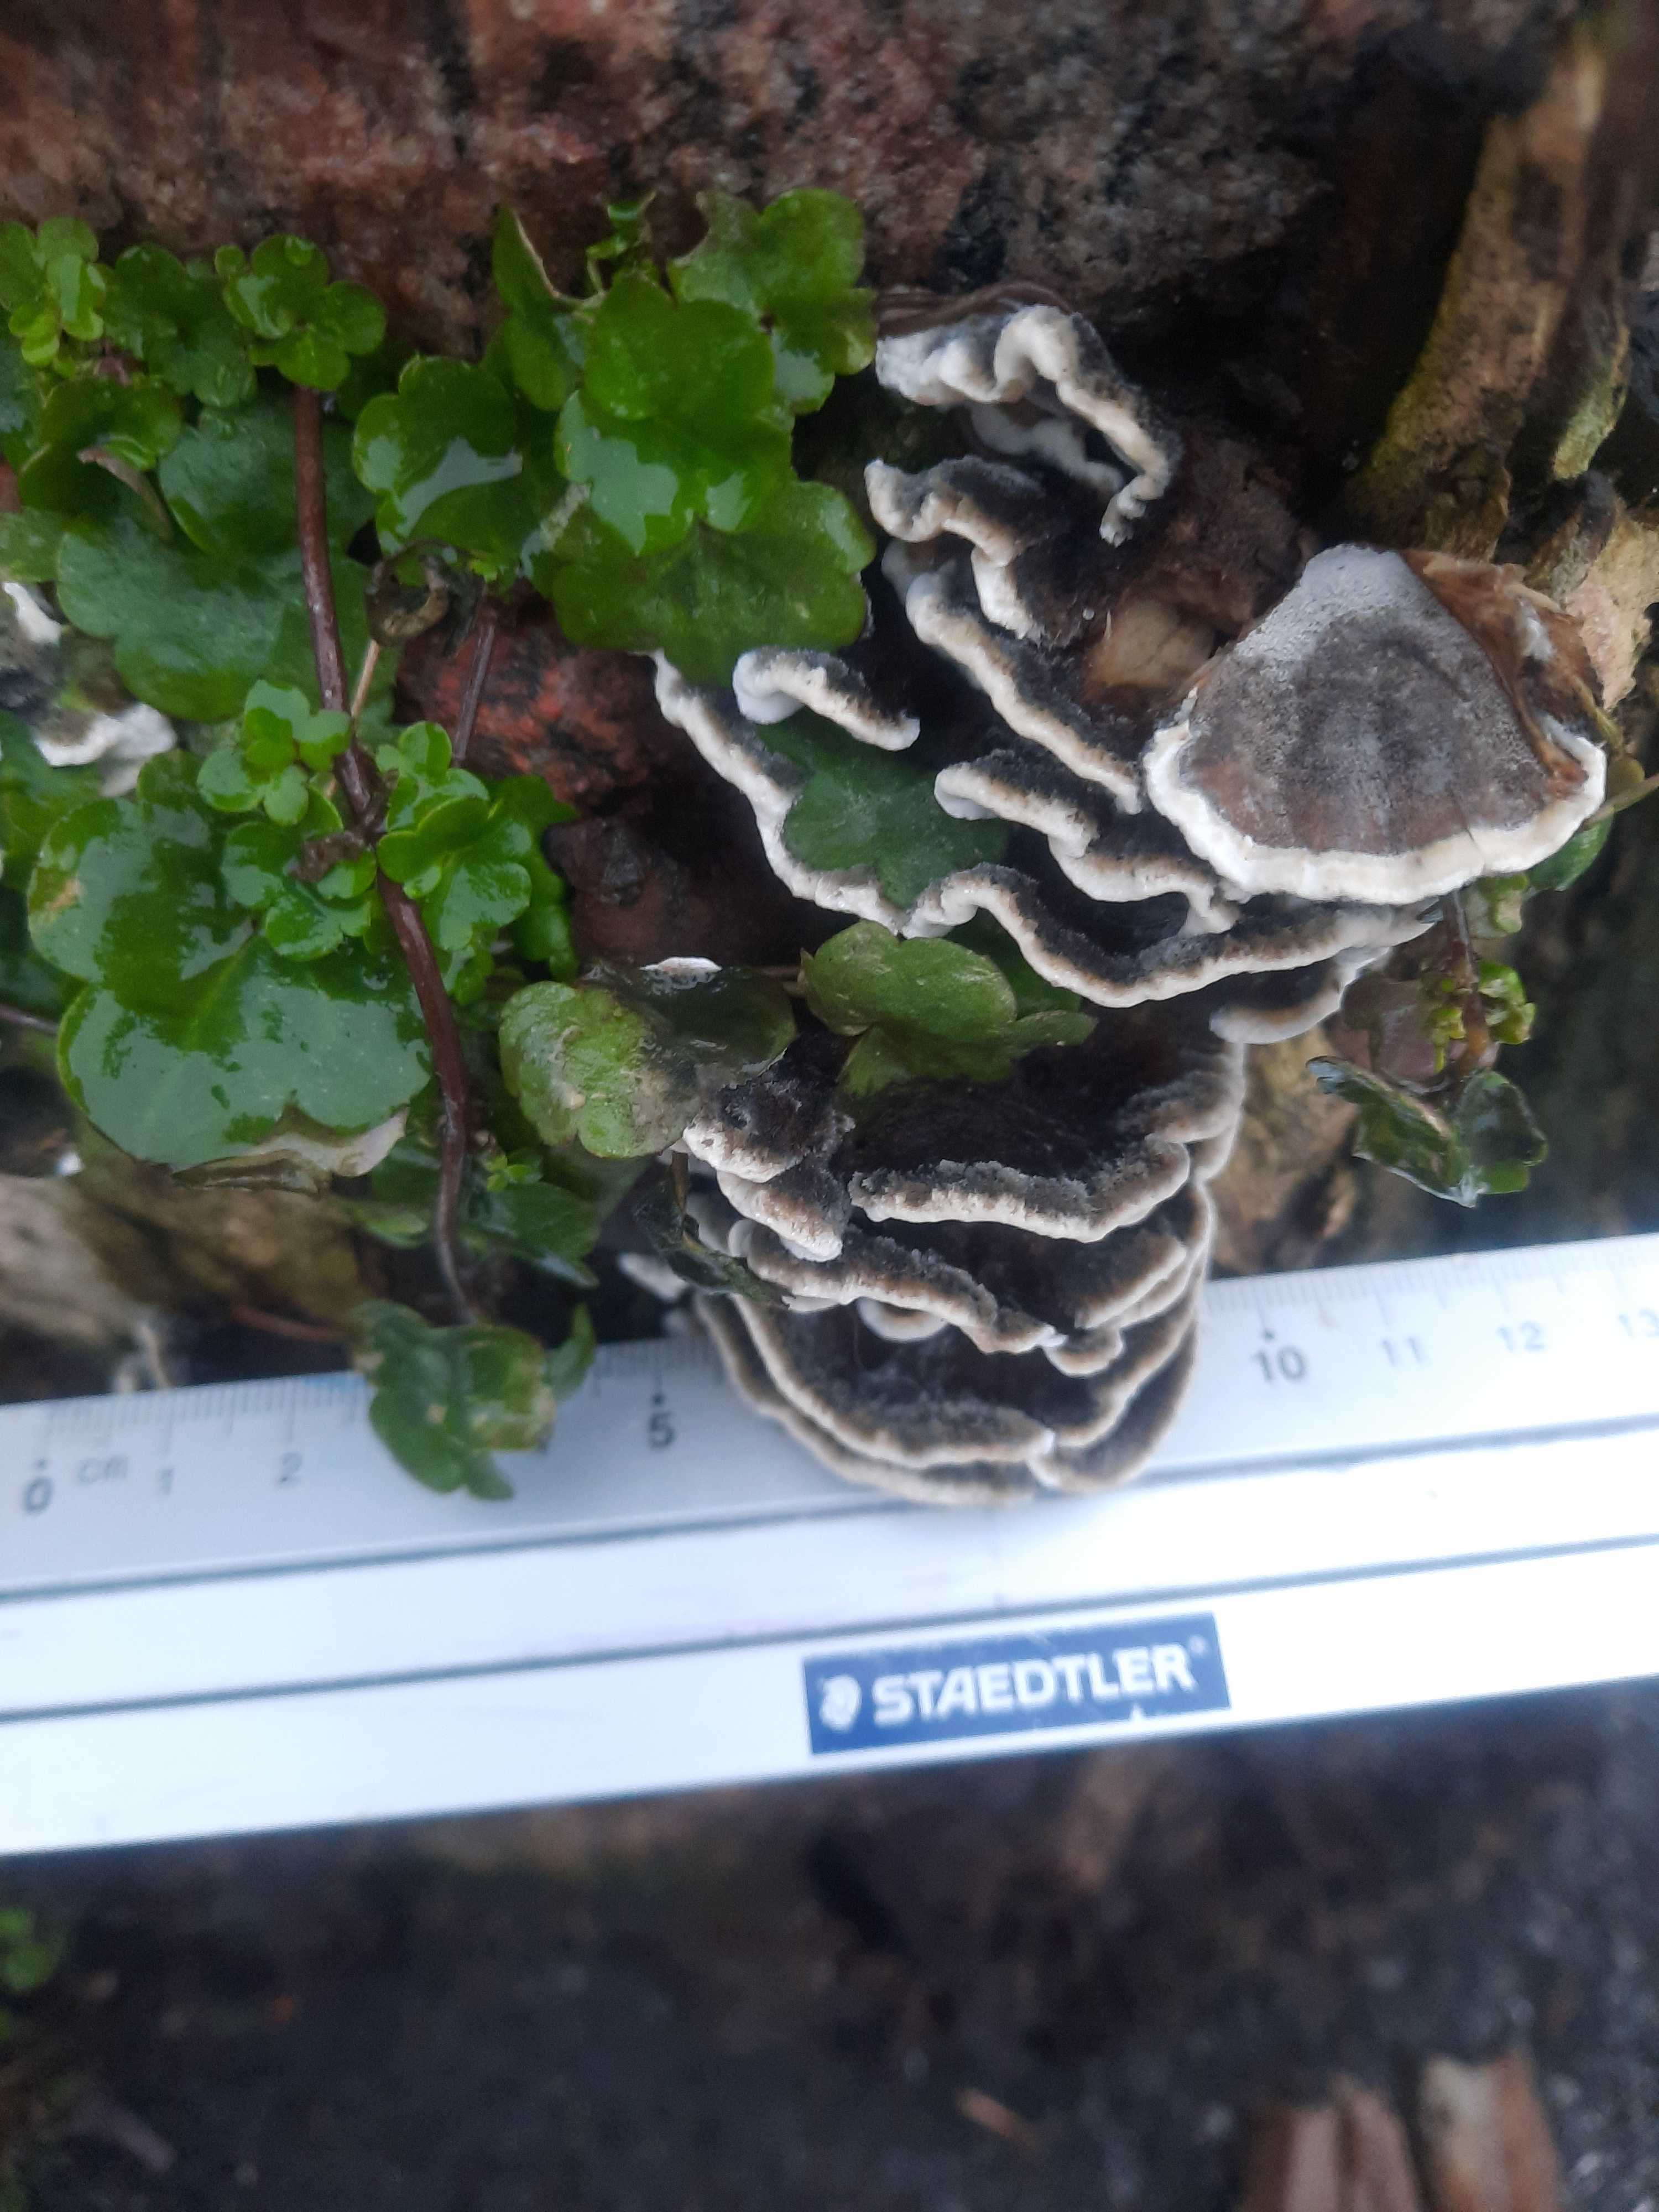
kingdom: Fungi
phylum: Basidiomycota
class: Agaricomycetes
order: Polyporales
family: Phanerochaetaceae
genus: Bjerkandera
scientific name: Bjerkandera adusta
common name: sveden sodporesvamp
